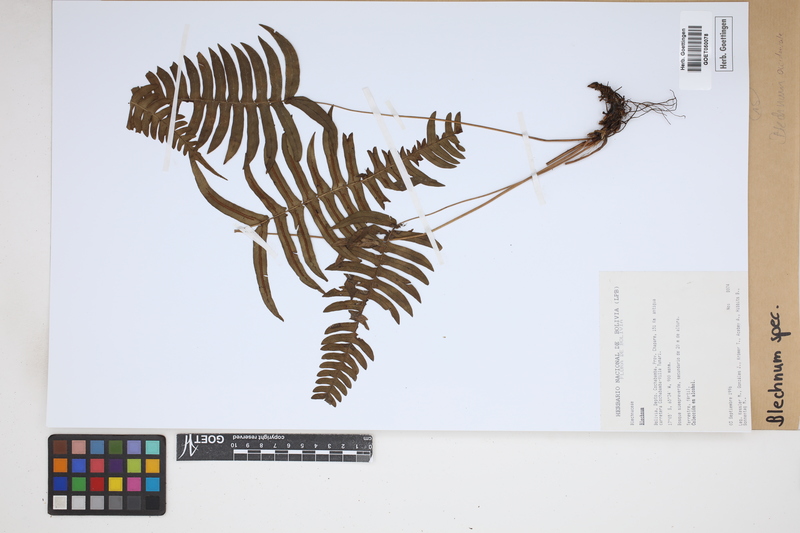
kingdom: Plantae
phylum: Tracheophyta
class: Polypodiopsida
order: Polypodiales
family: Blechnaceae
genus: Blechnum
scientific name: Blechnum
